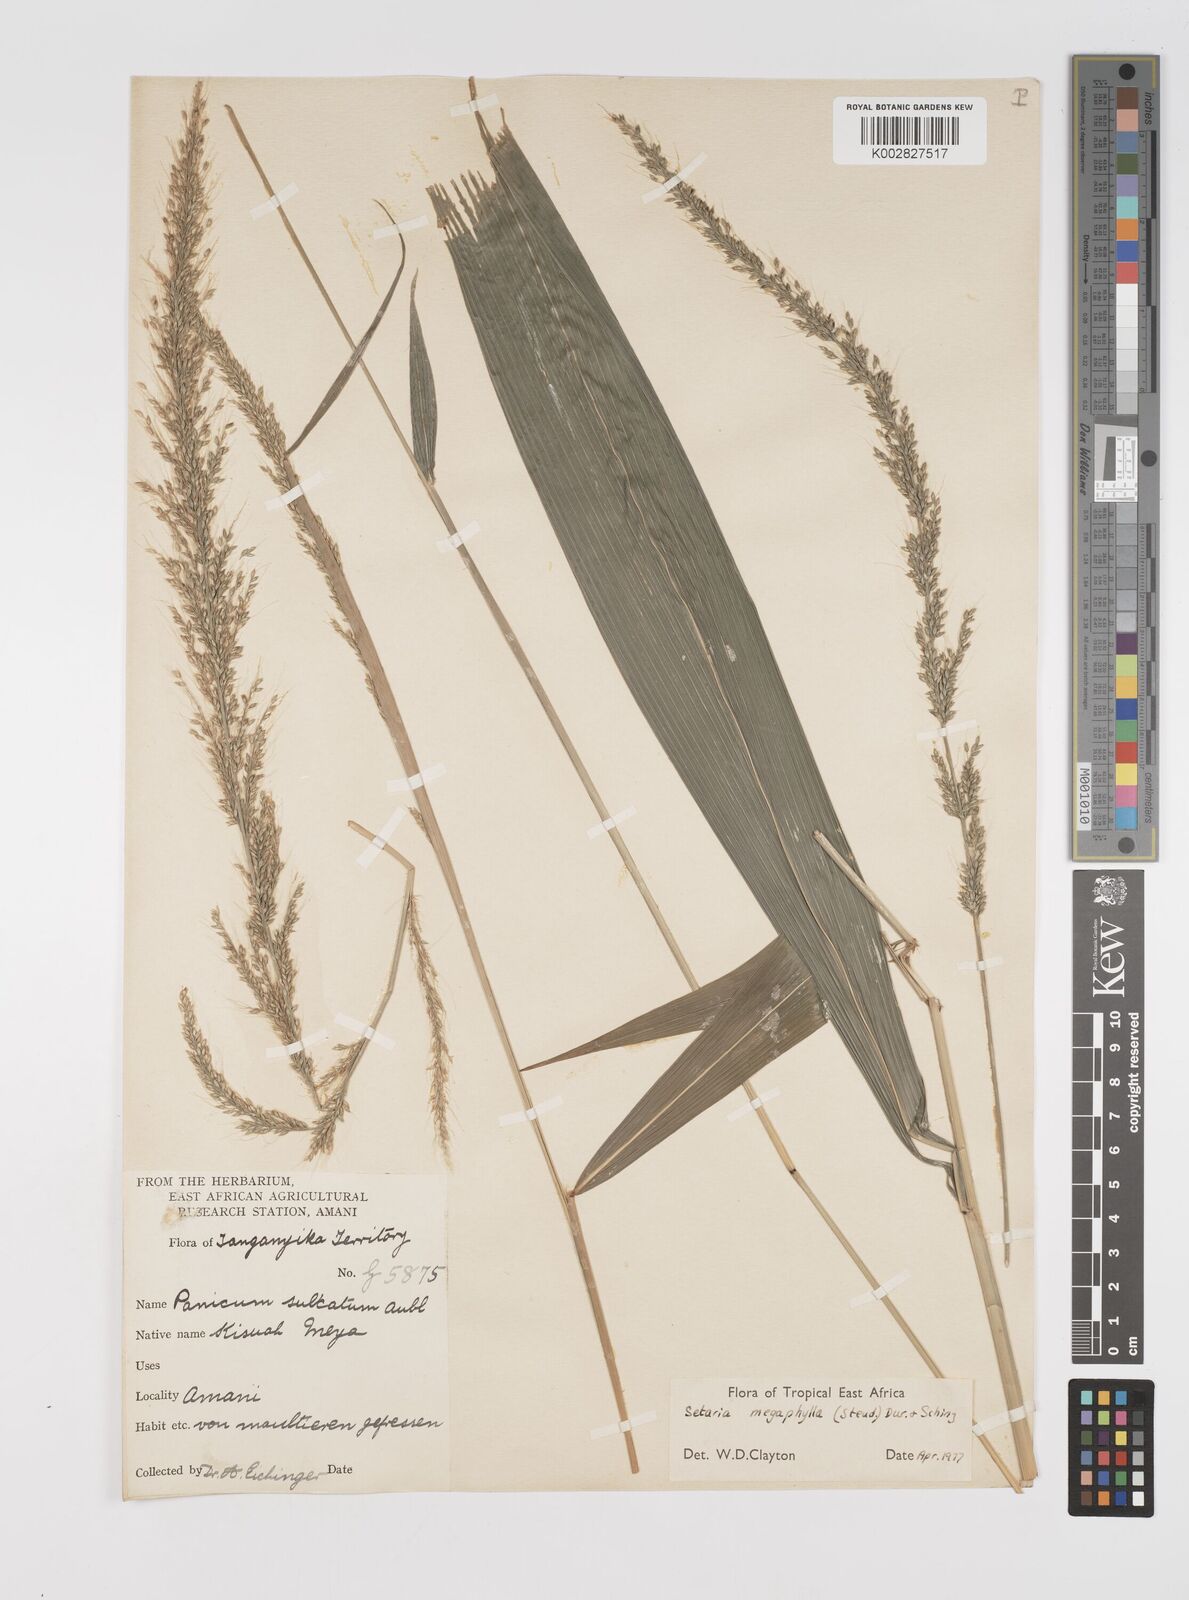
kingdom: Plantae
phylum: Tracheophyta
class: Liliopsida
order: Poales
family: Poaceae
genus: Setaria
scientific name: Setaria megaphylla
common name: Bigleaf bristlegrass
